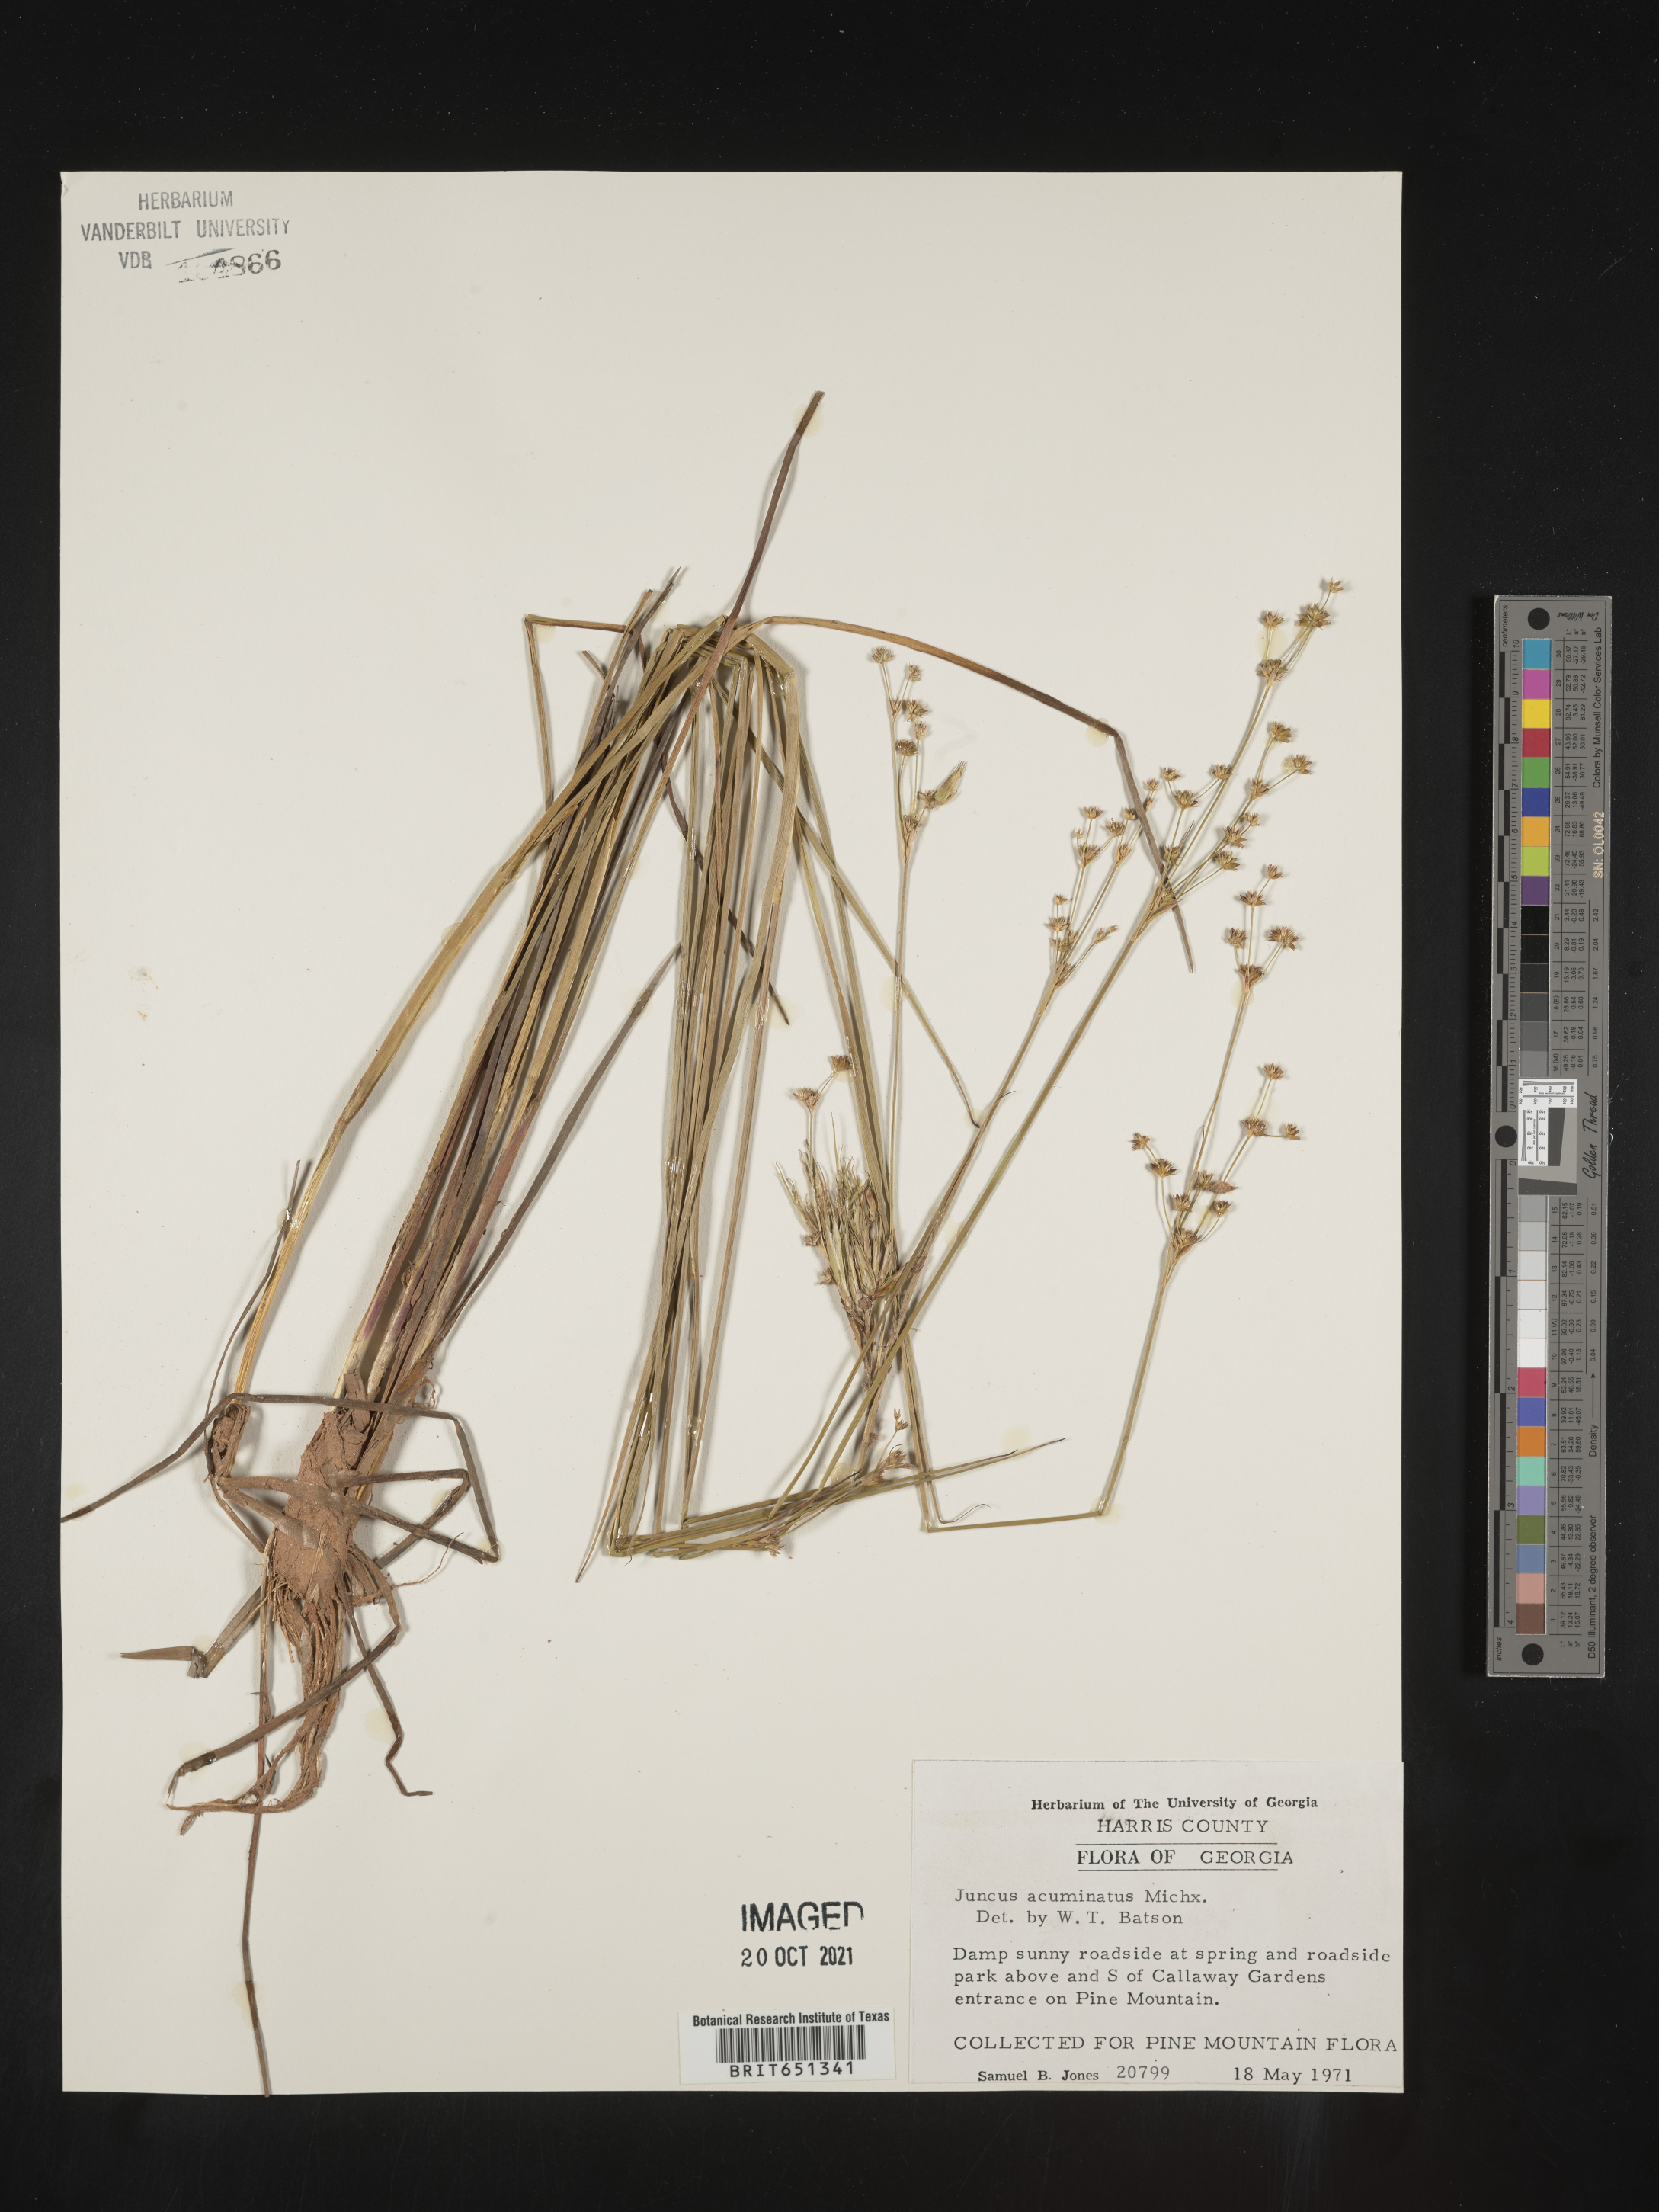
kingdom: Plantae
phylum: Tracheophyta
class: Liliopsida
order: Poales
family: Juncaceae
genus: Juncus
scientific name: Juncus acuminatus
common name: Knotty-leaved rush
